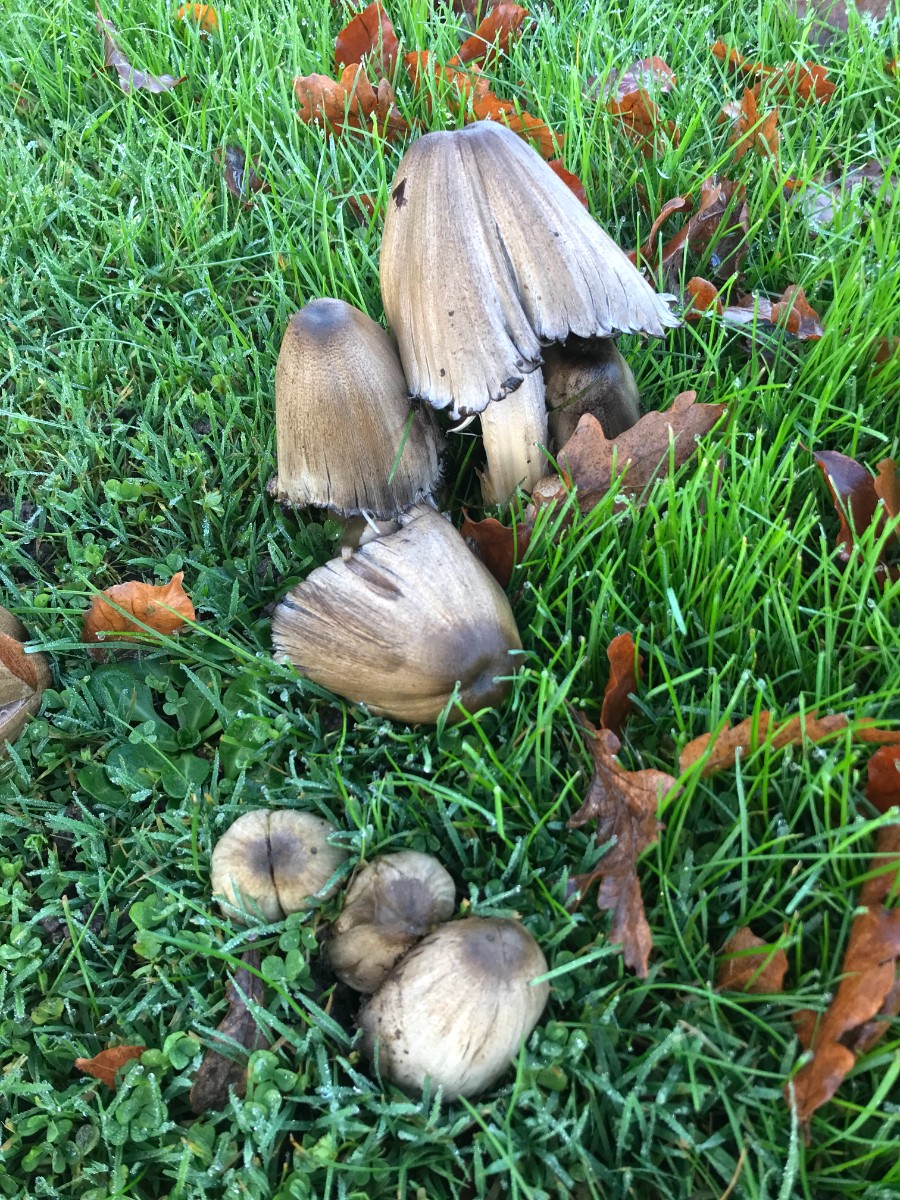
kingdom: Fungi
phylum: Basidiomycota
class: Agaricomycetes
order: Agaricales
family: Psathyrellaceae
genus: Coprinopsis
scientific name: Coprinopsis atramentaria
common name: almindelig blækhat
